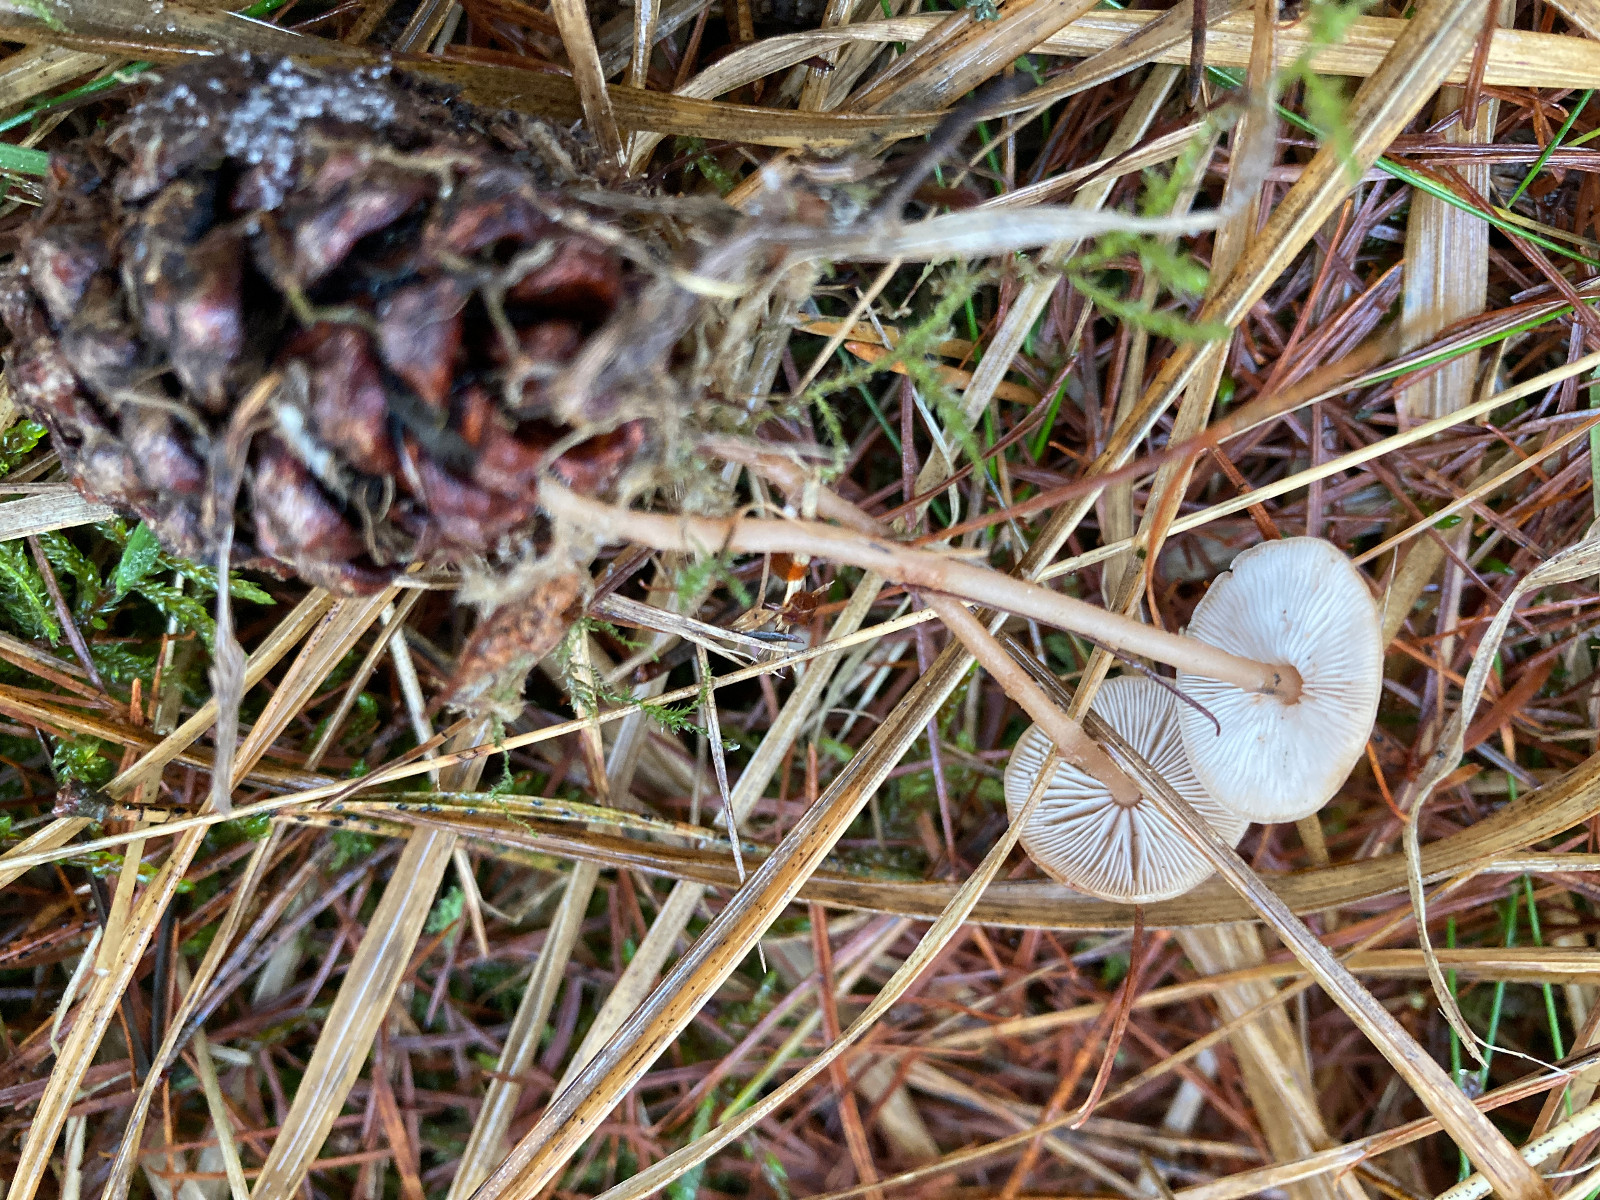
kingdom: Fungi
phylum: Basidiomycota
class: Agaricomycetes
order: Agaricales
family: Marasmiaceae
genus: Baeospora
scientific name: Baeospora myosura
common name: koglebruskhat
